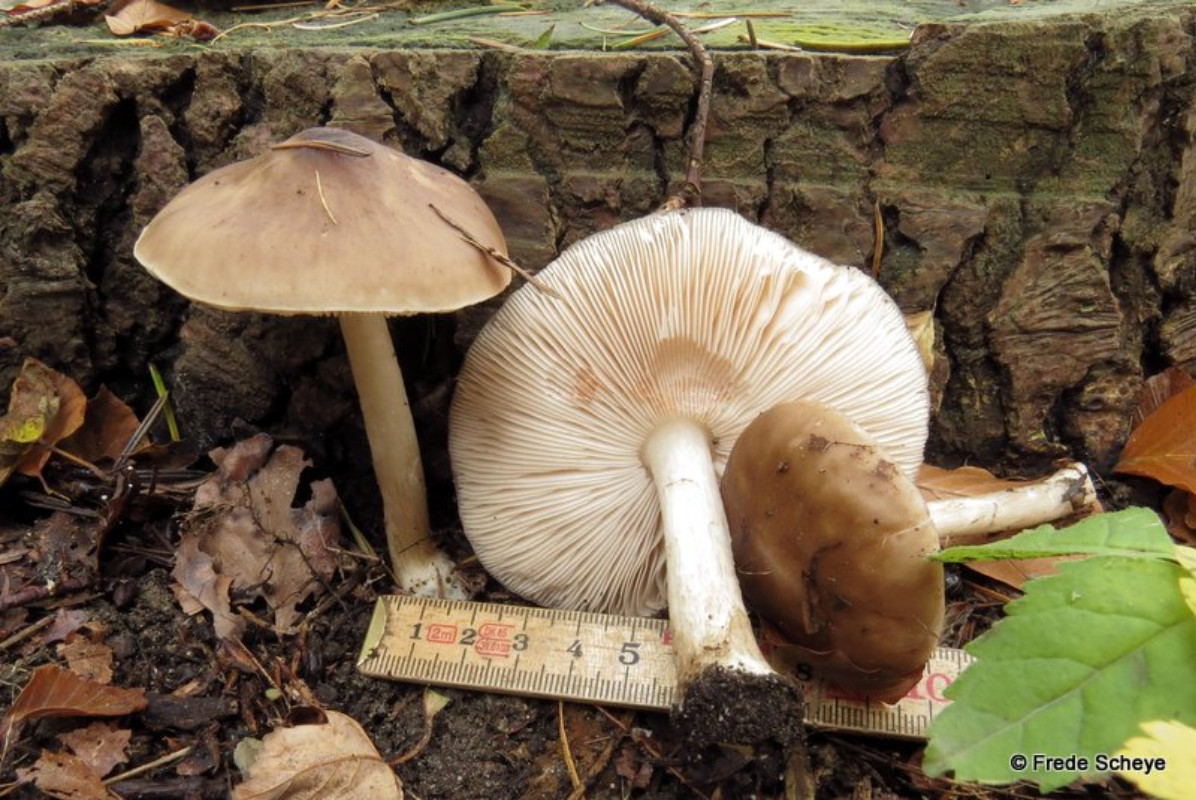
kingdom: Fungi
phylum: Basidiomycota
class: Agaricomycetes
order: Agaricales
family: Pluteaceae
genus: Pluteus
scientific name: Pluteus cervinus
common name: sodfarvet skærmhat
